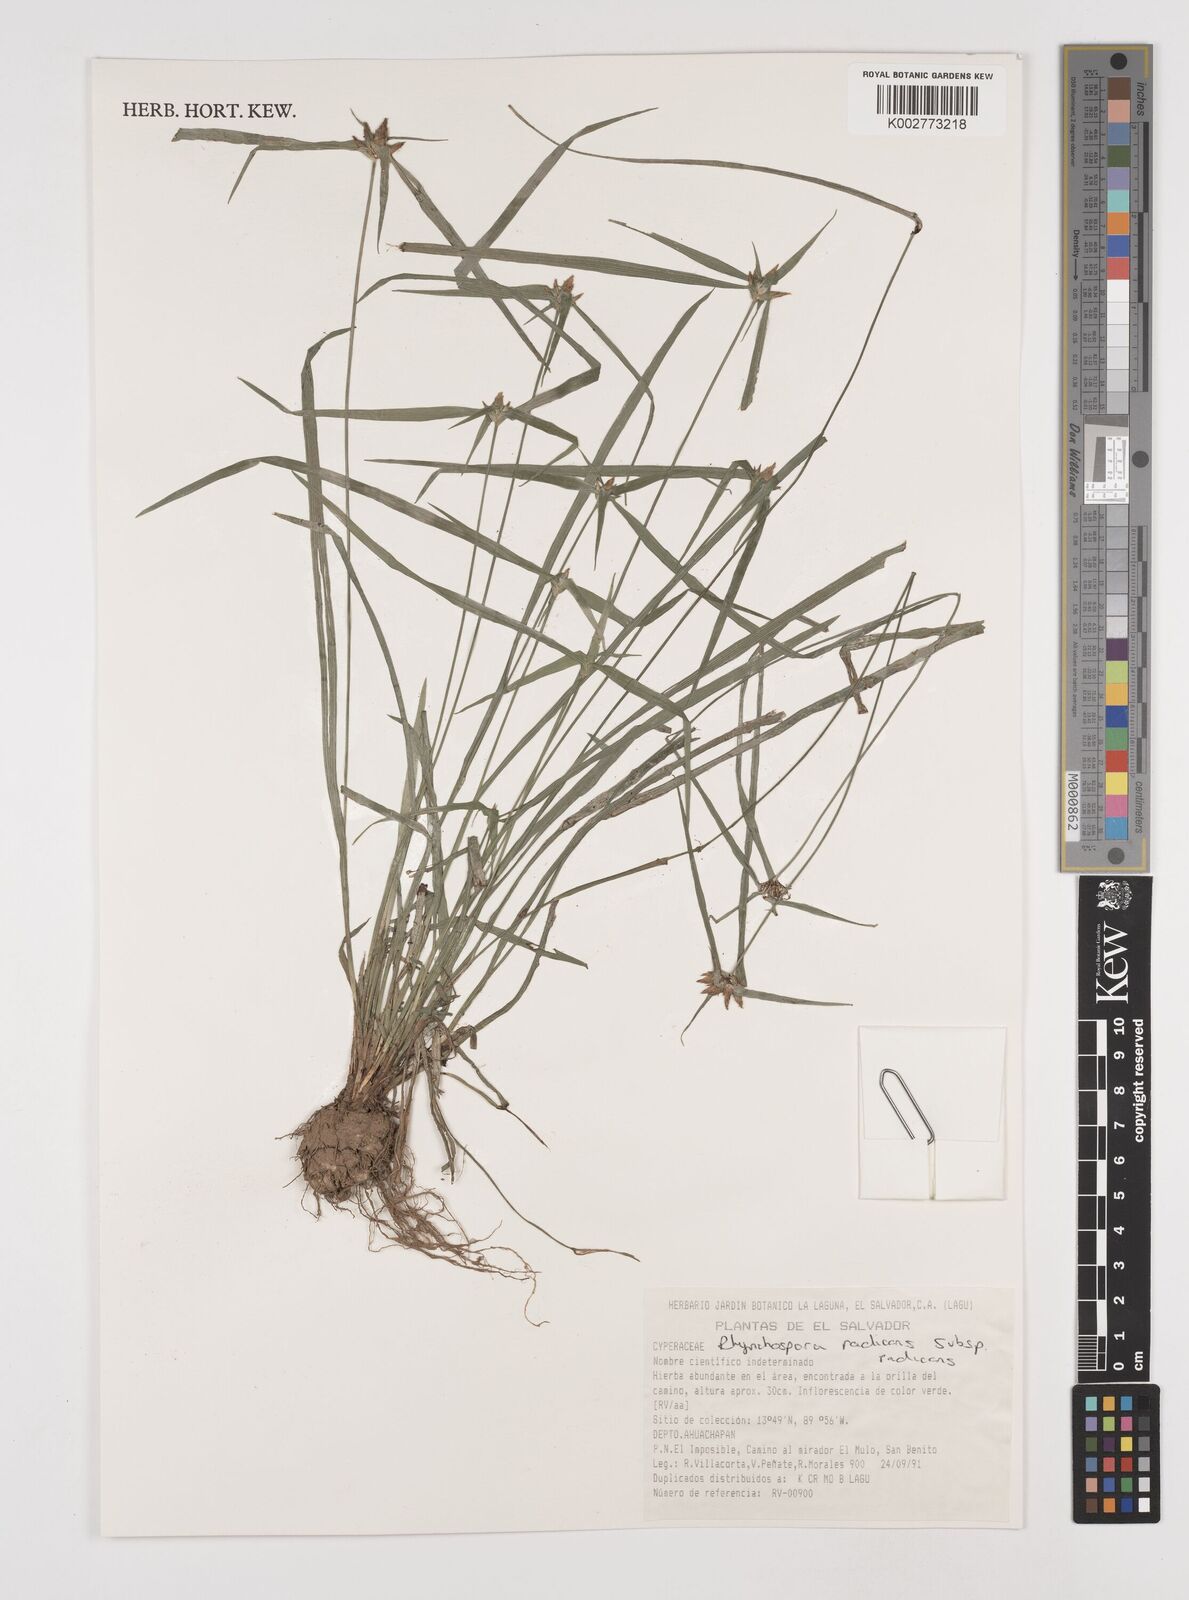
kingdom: Plantae
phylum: Tracheophyta
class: Liliopsida
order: Poales
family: Cyperaceae
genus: Rhynchospora
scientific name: Rhynchospora radicans
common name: Tropical whitetop
